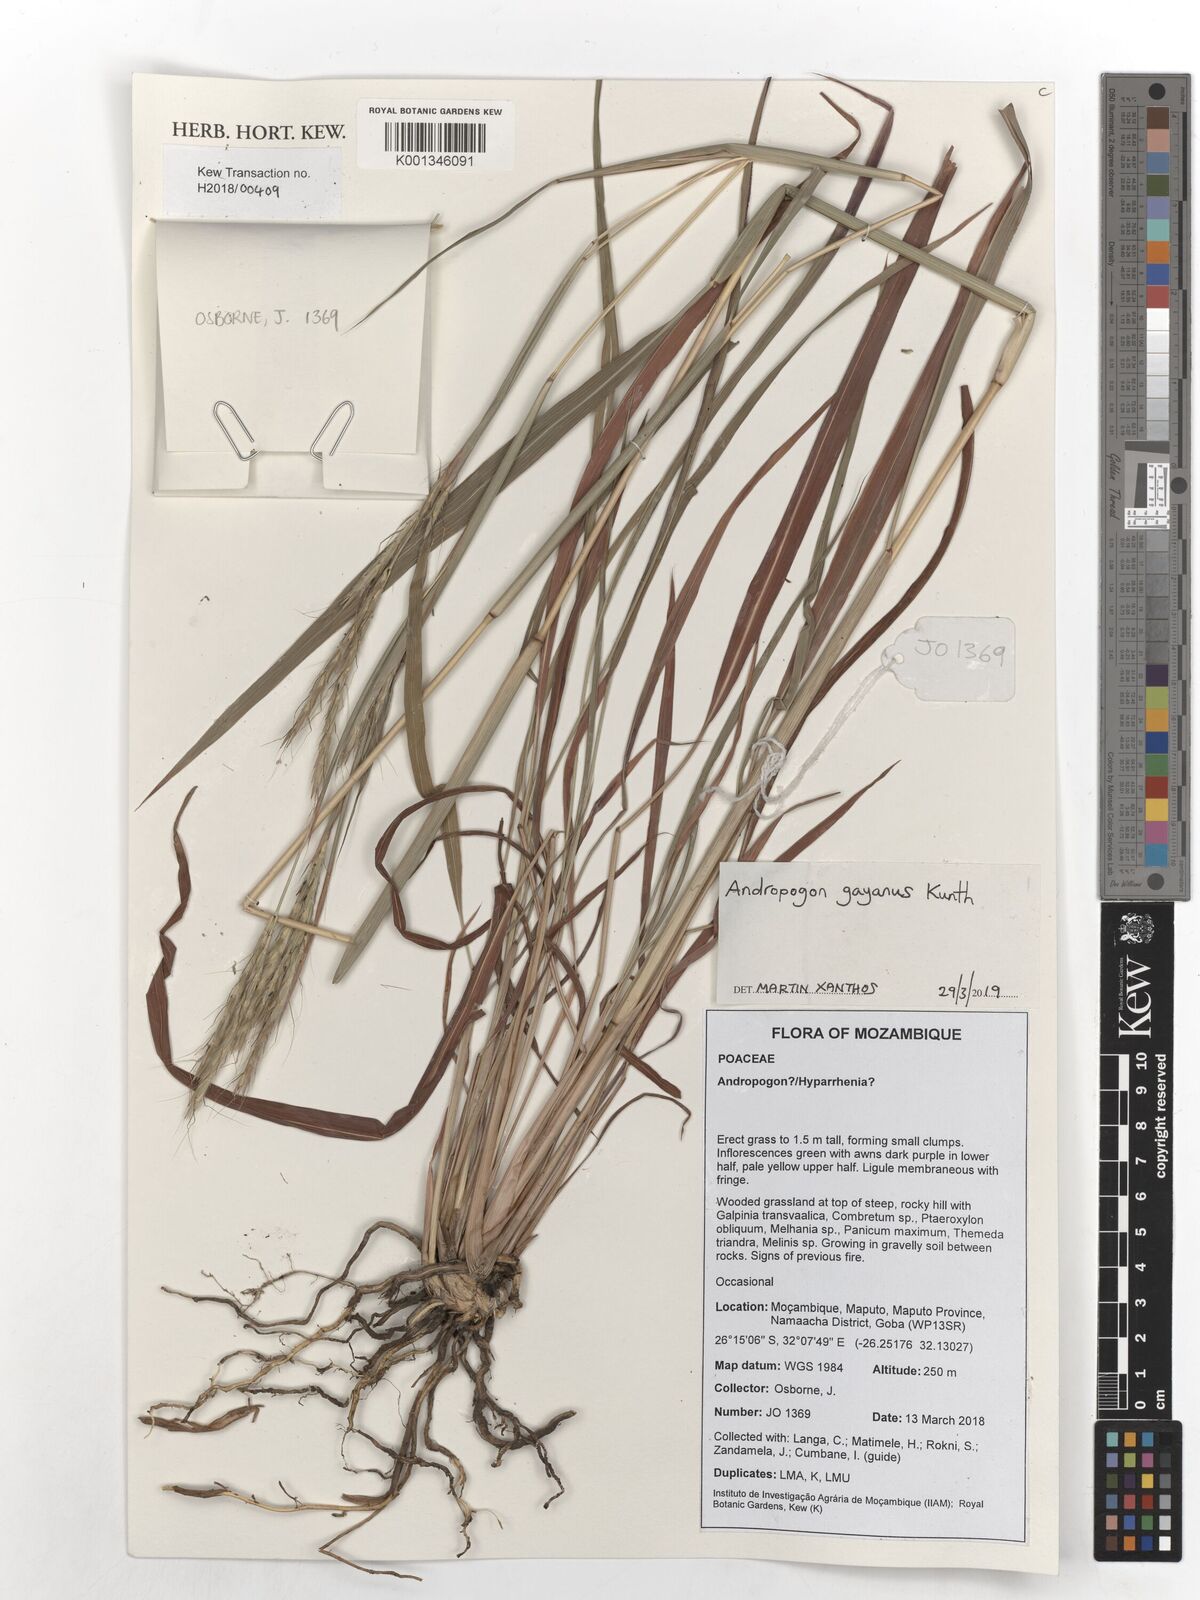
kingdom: Plantae
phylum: Tracheophyta
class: Liliopsida
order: Poales
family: Poaceae
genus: Andropogon
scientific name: Andropogon gayanus
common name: Tambuki grass
